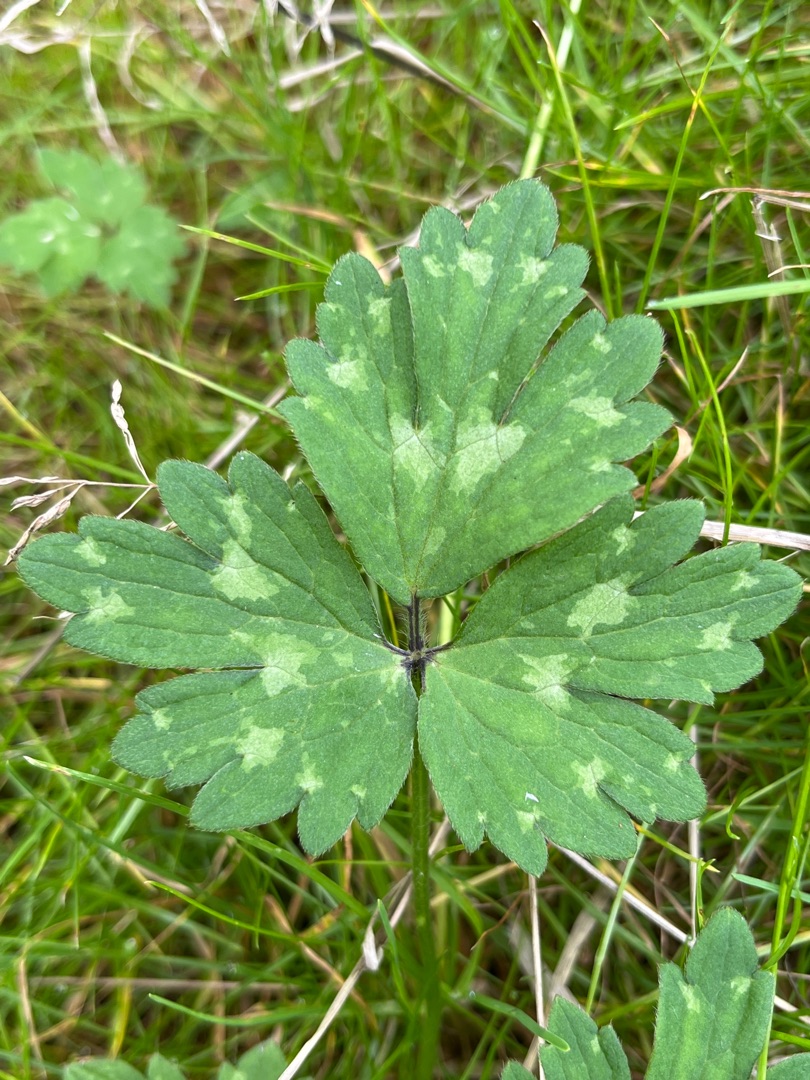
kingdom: Plantae
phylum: Tracheophyta
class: Magnoliopsida
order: Ranunculales
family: Ranunculaceae
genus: Ranunculus
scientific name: Ranunculus repens
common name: Lav ranunkel
